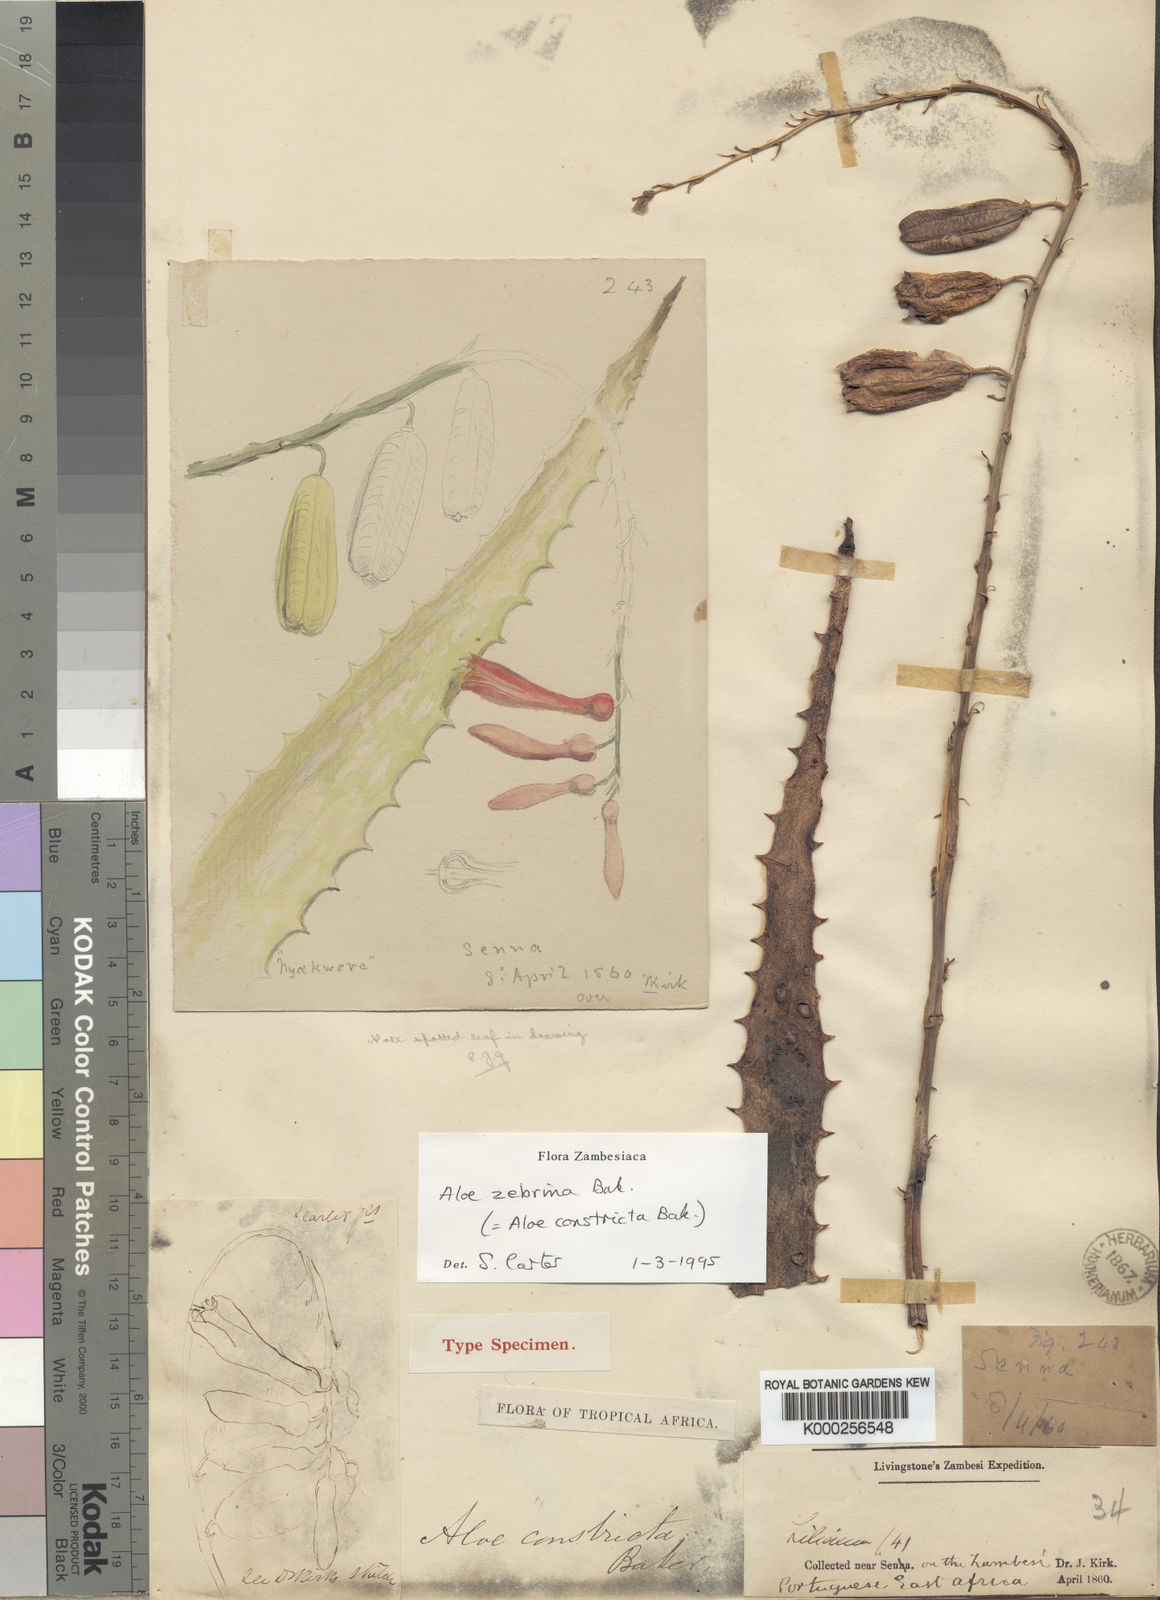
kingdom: Plantae
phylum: Tracheophyta
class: Liliopsida
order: Asparagales
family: Asphodelaceae
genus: Aloe
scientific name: Aloe zebrina
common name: Zebra-leaf aloe
